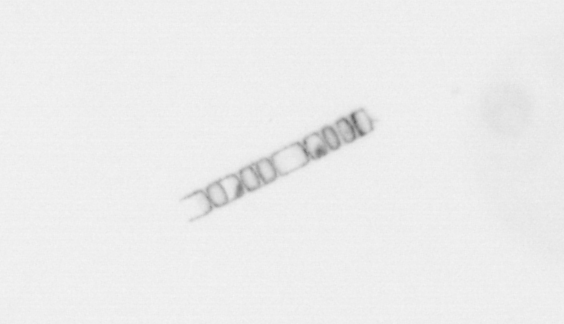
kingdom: Chromista
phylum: Ochrophyta
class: Bacillariophyceae
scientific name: Bacillariophyceae
